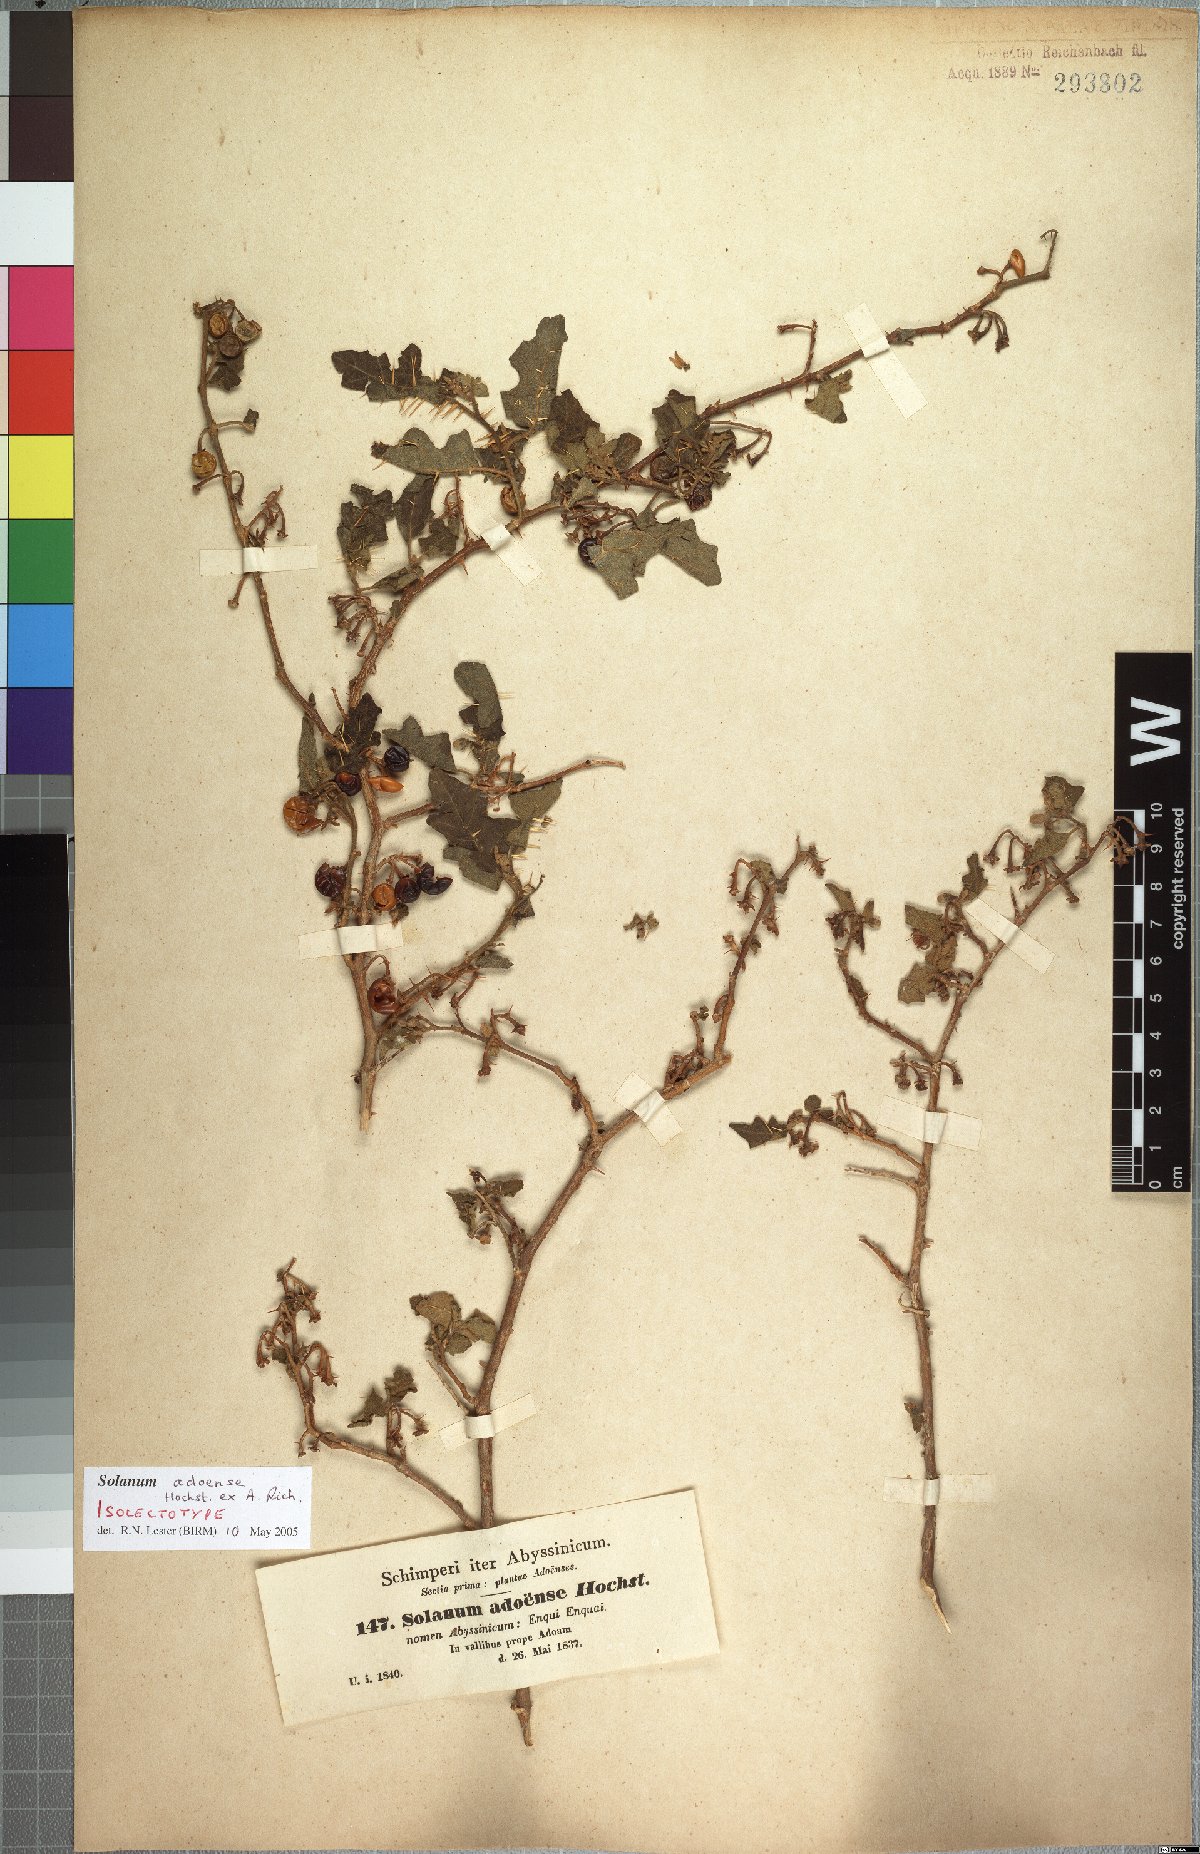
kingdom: Plantae
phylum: Tracheophyta
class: Magnoliopsida
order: Solanales
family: Solanaceae
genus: Solanum
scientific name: Solanum adoense
